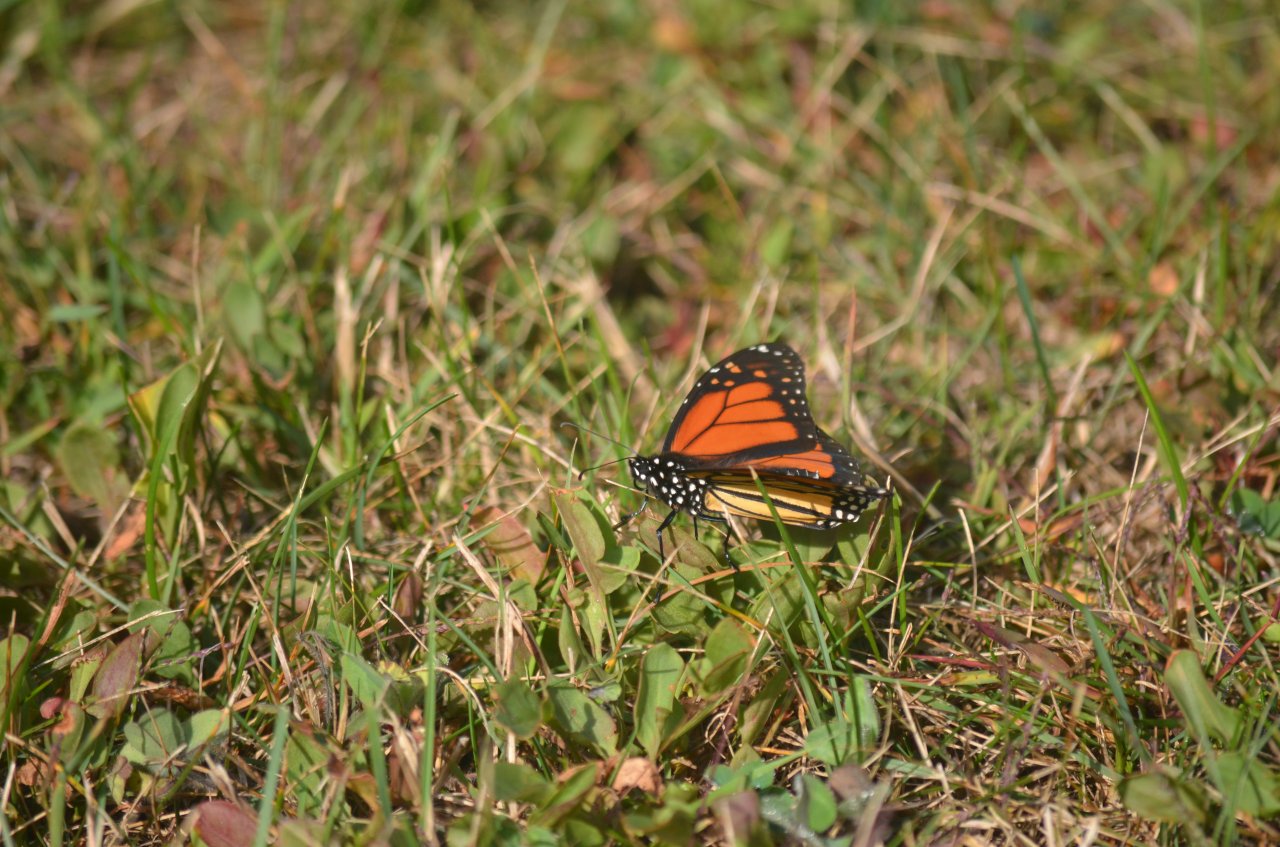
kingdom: Animalia
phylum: Arthropoda
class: Insecta
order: Lepidoptera
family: Nymphalidae
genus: Danaus
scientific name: Danaus plexippus
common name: Monarch
